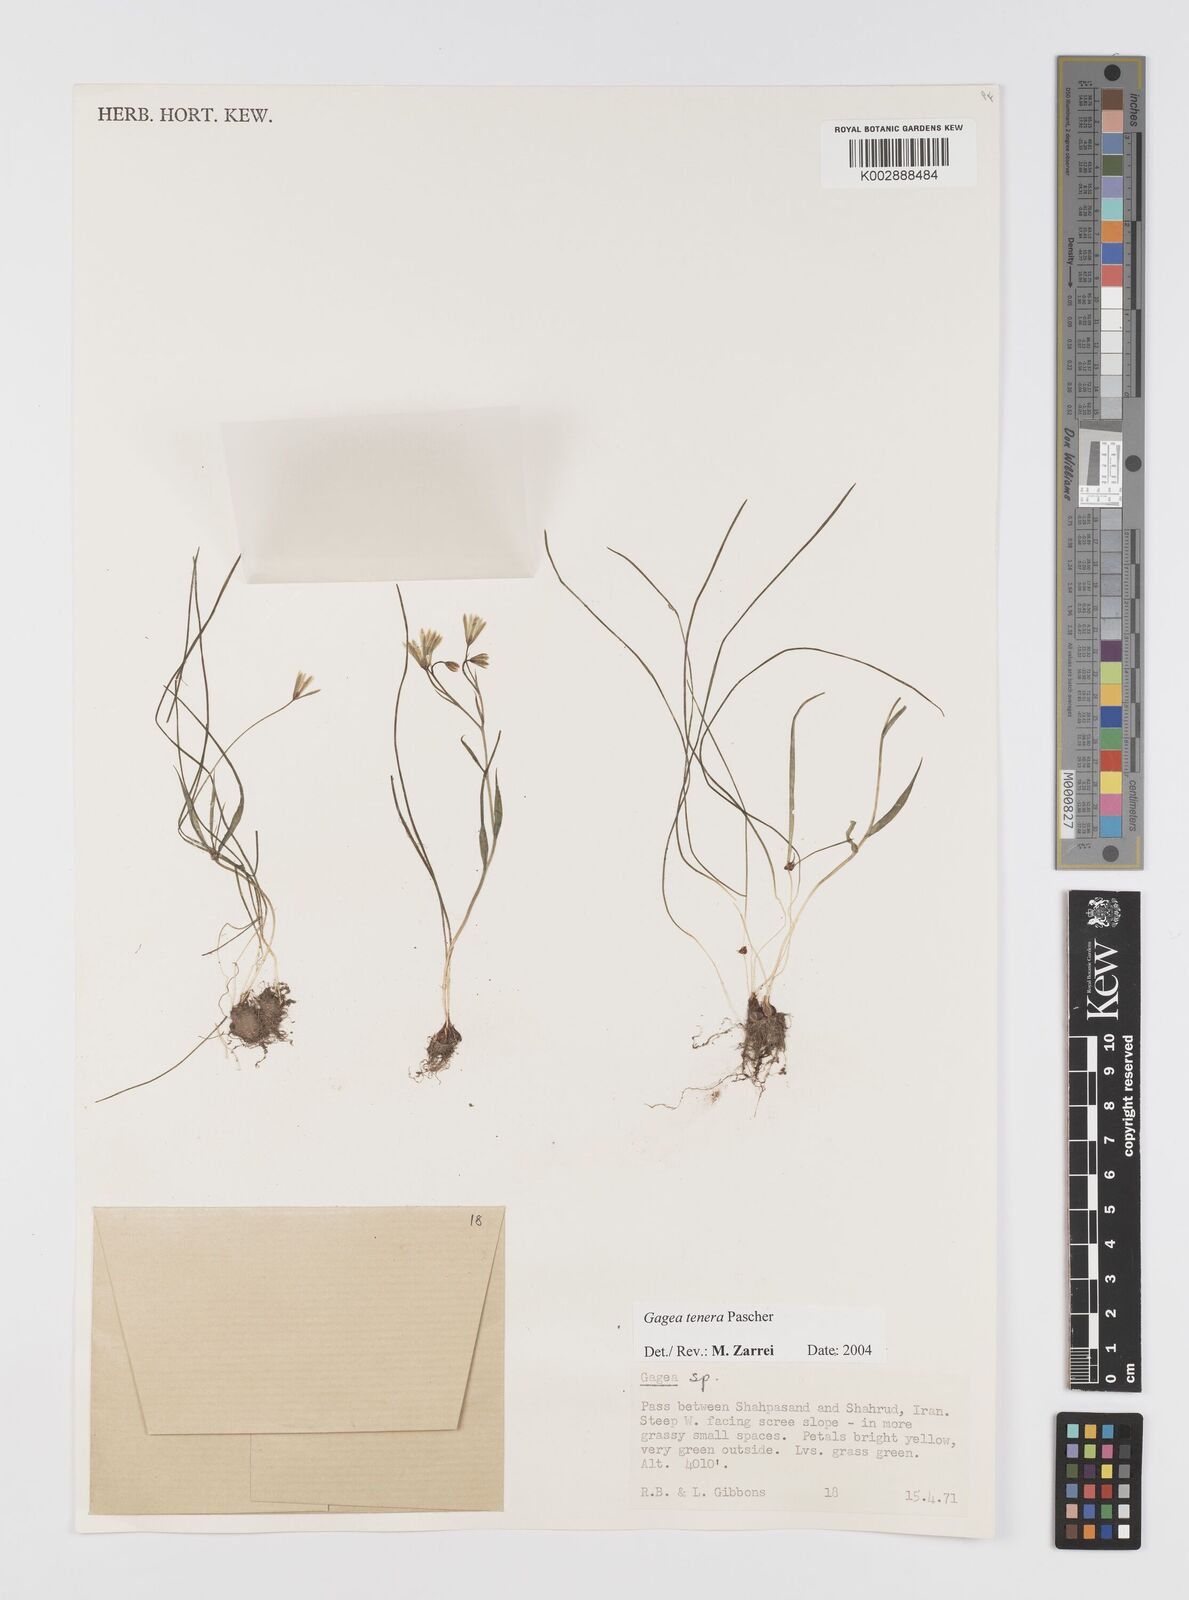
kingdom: Plantae
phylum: Tracheophyta
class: Liliopsida
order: Liliales
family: Liliaceae
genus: Gagea
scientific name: Gagea tenera
